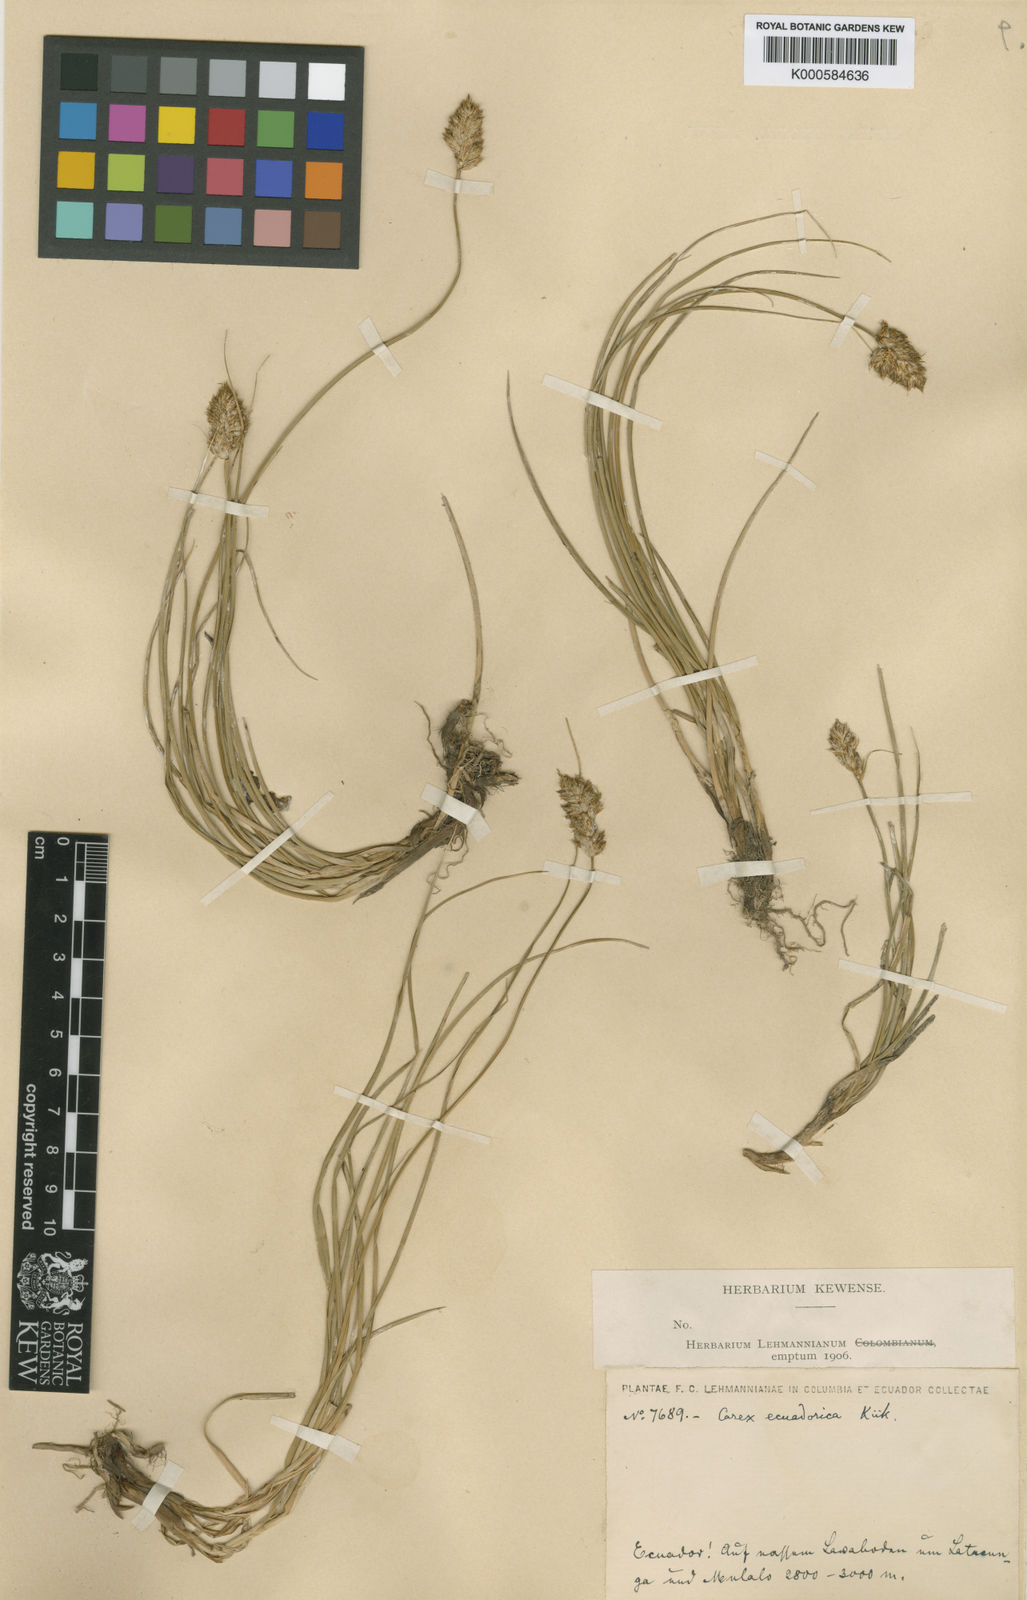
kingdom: Plantae
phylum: Tracheophyta
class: Liliopsida
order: Poales
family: Cyperaceae
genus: Carex
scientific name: Carex
